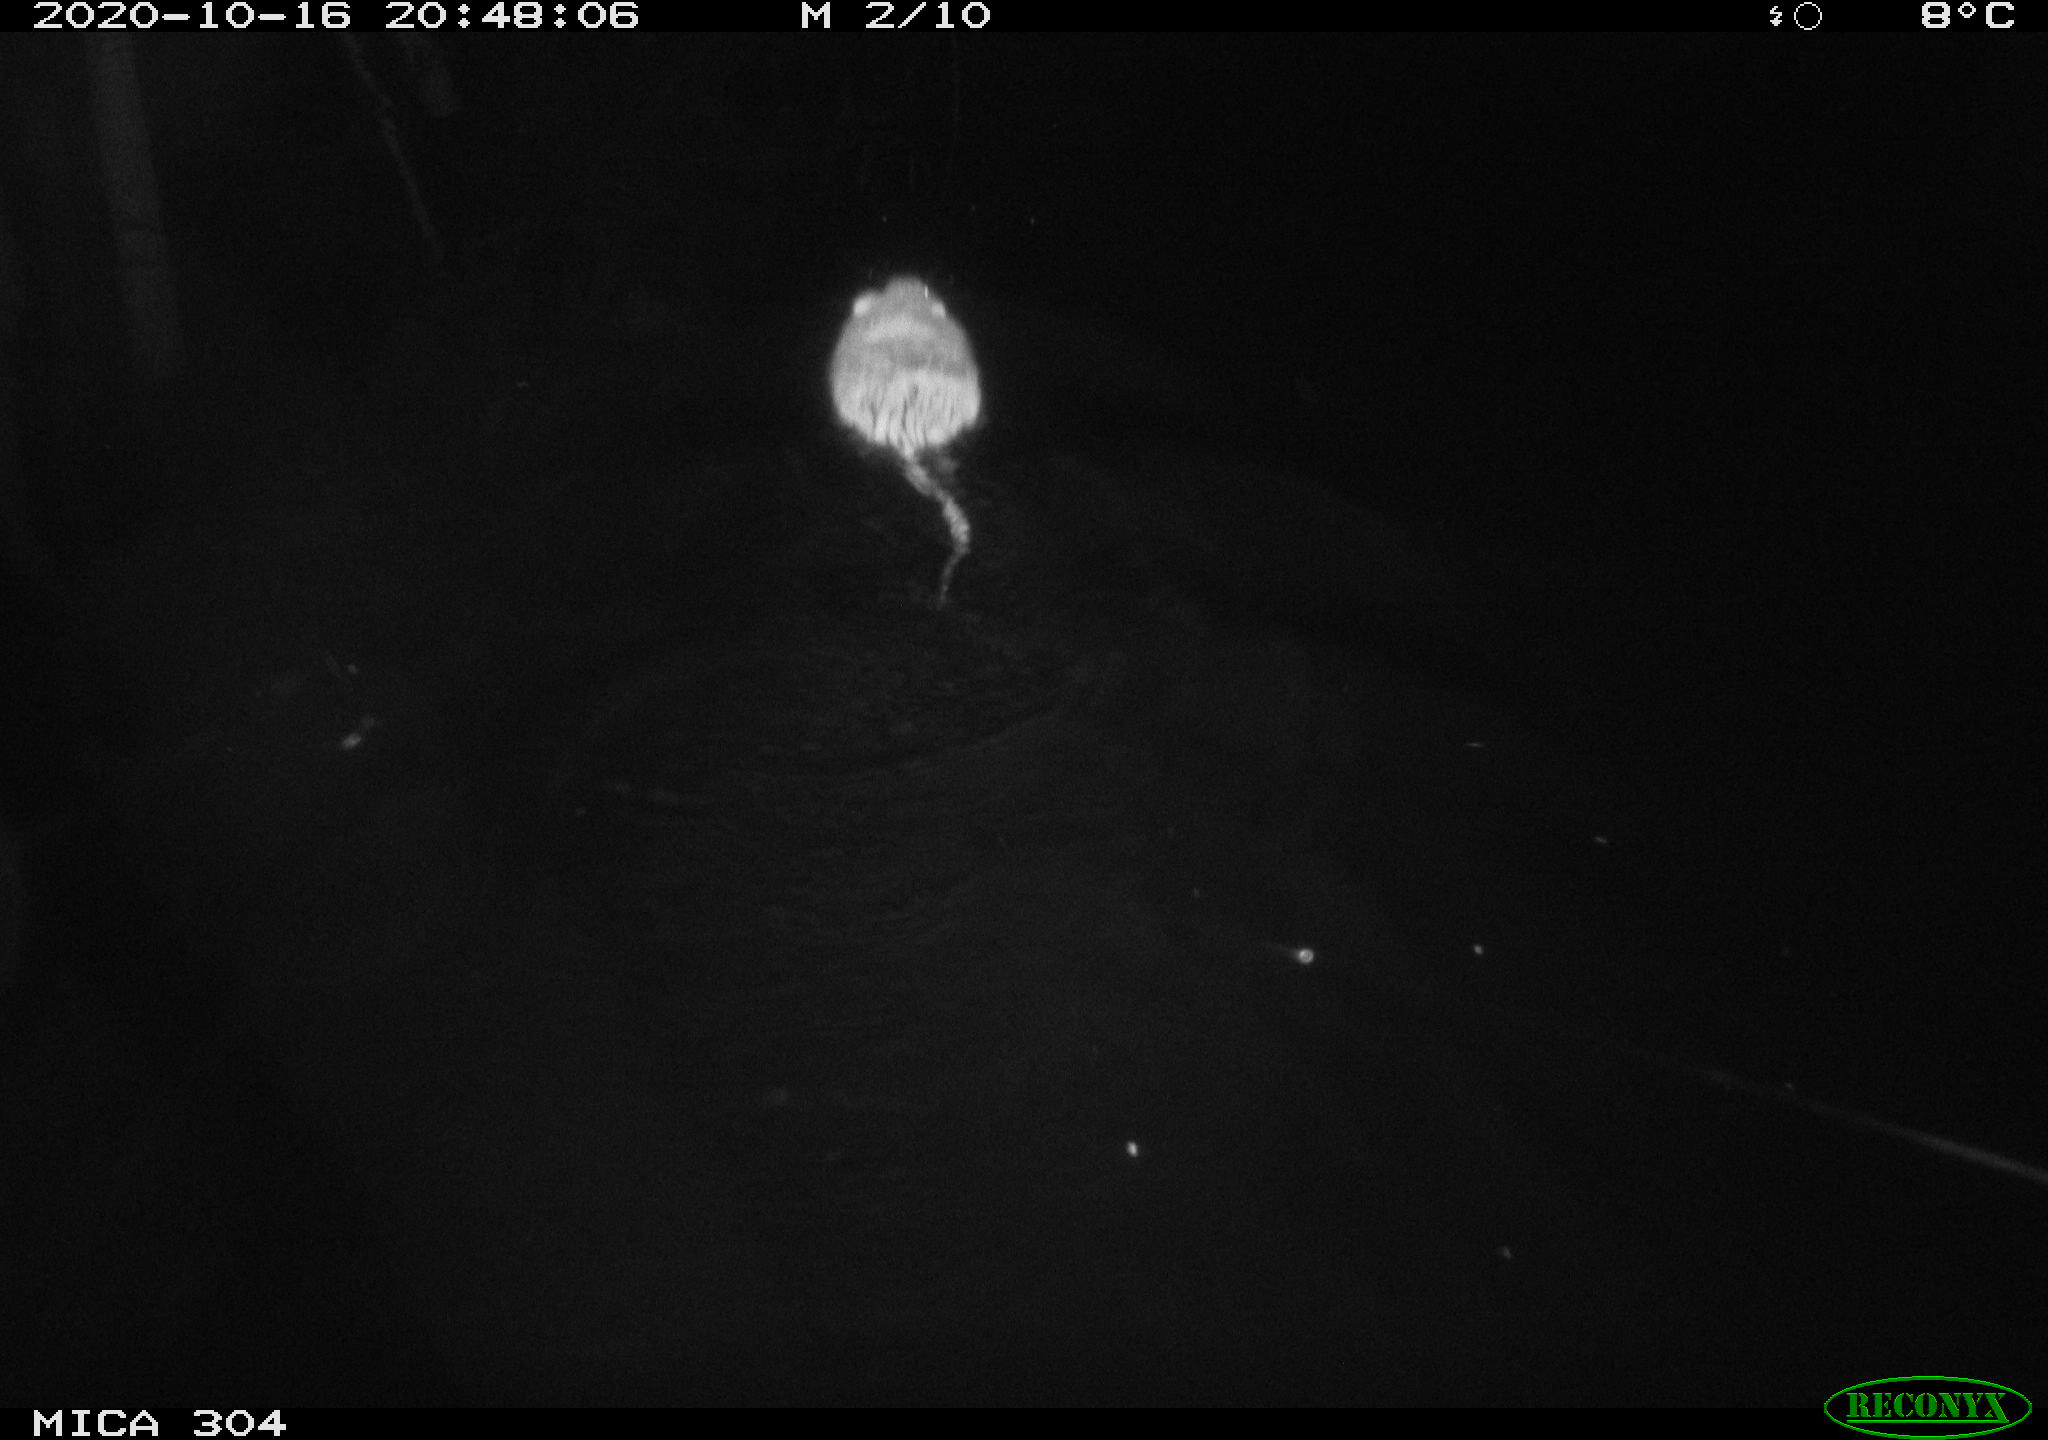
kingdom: Animalia
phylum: Chordata
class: Mammalia
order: Rodentia
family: Cricetidae
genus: Ondatra
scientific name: Ondatra zibethicus
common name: Muskrat
